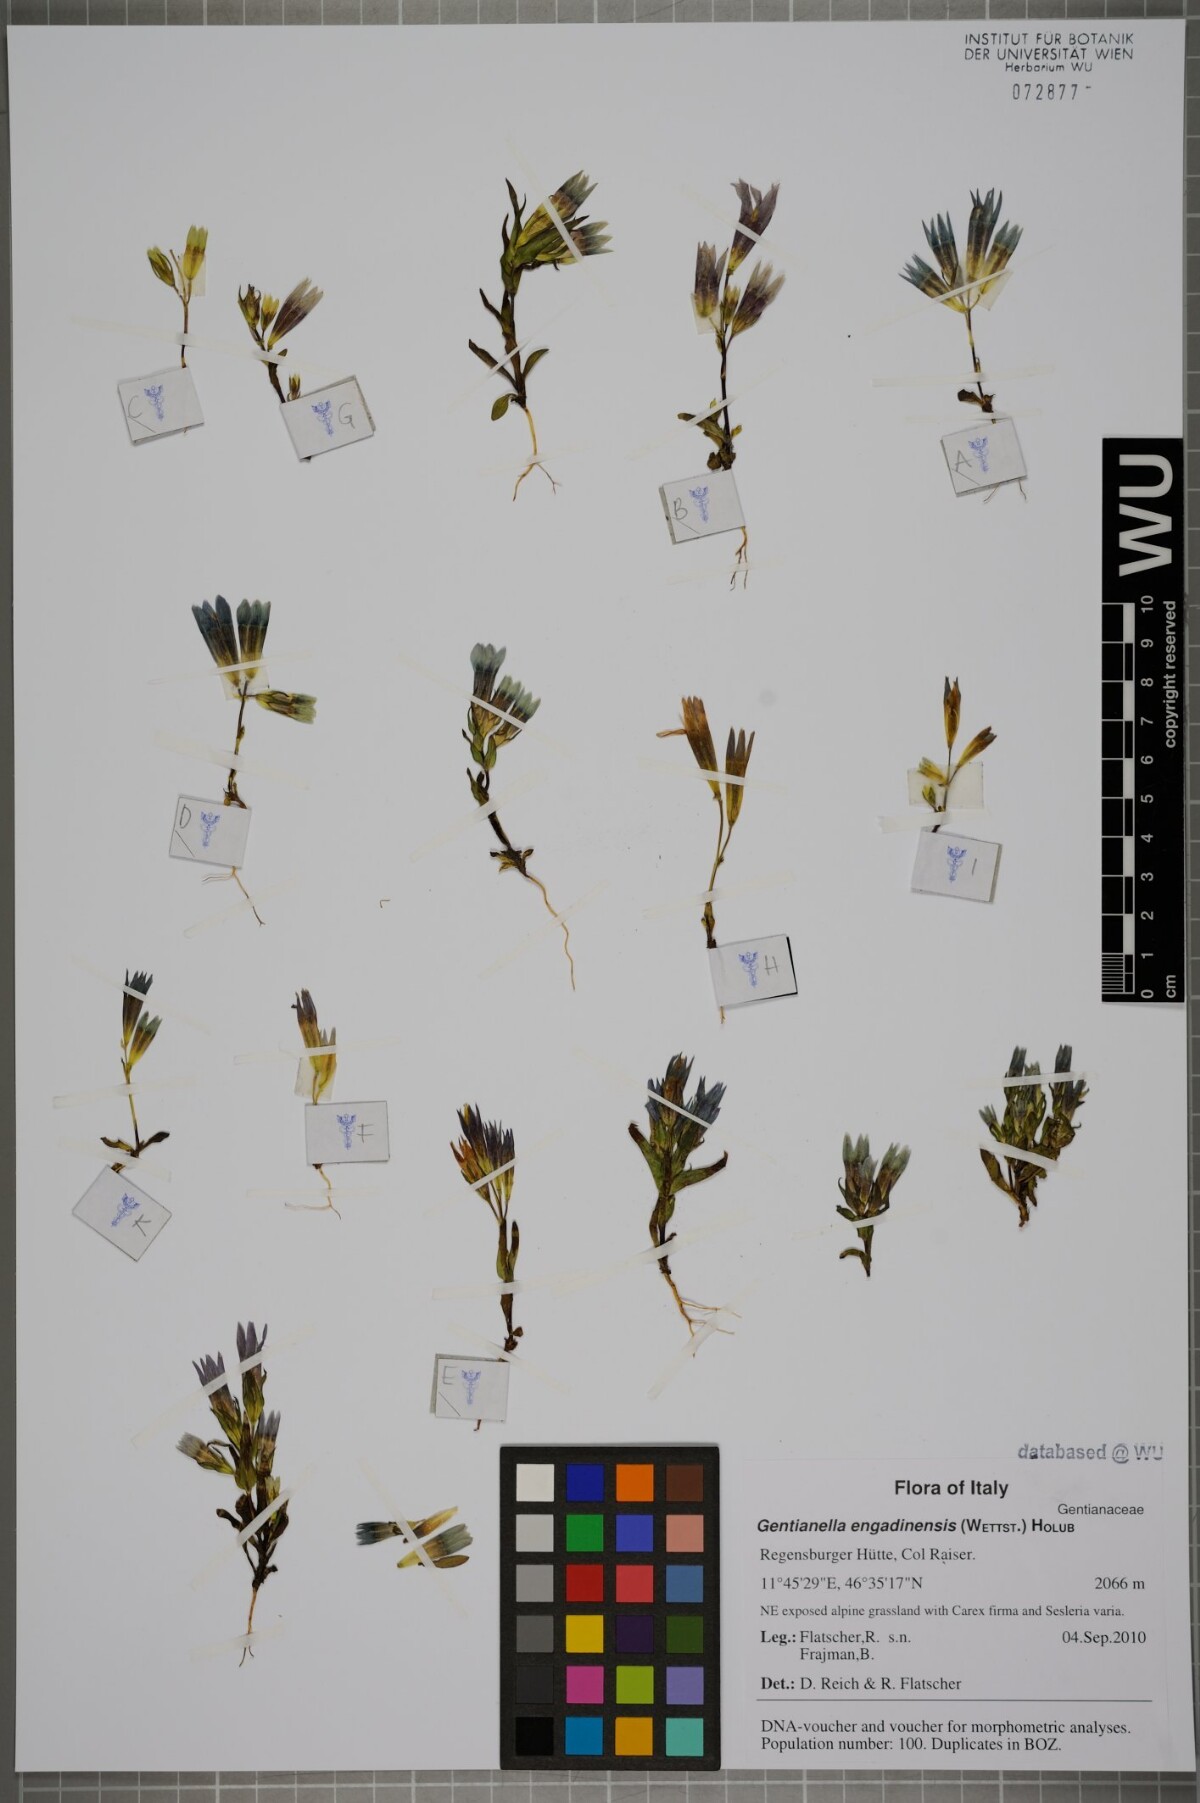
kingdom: Plantae
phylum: Tracheophyta
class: Magnoliopsida
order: Gentianales
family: Gentianaceae
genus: Gentianella
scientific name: Gentianella engadinensis
